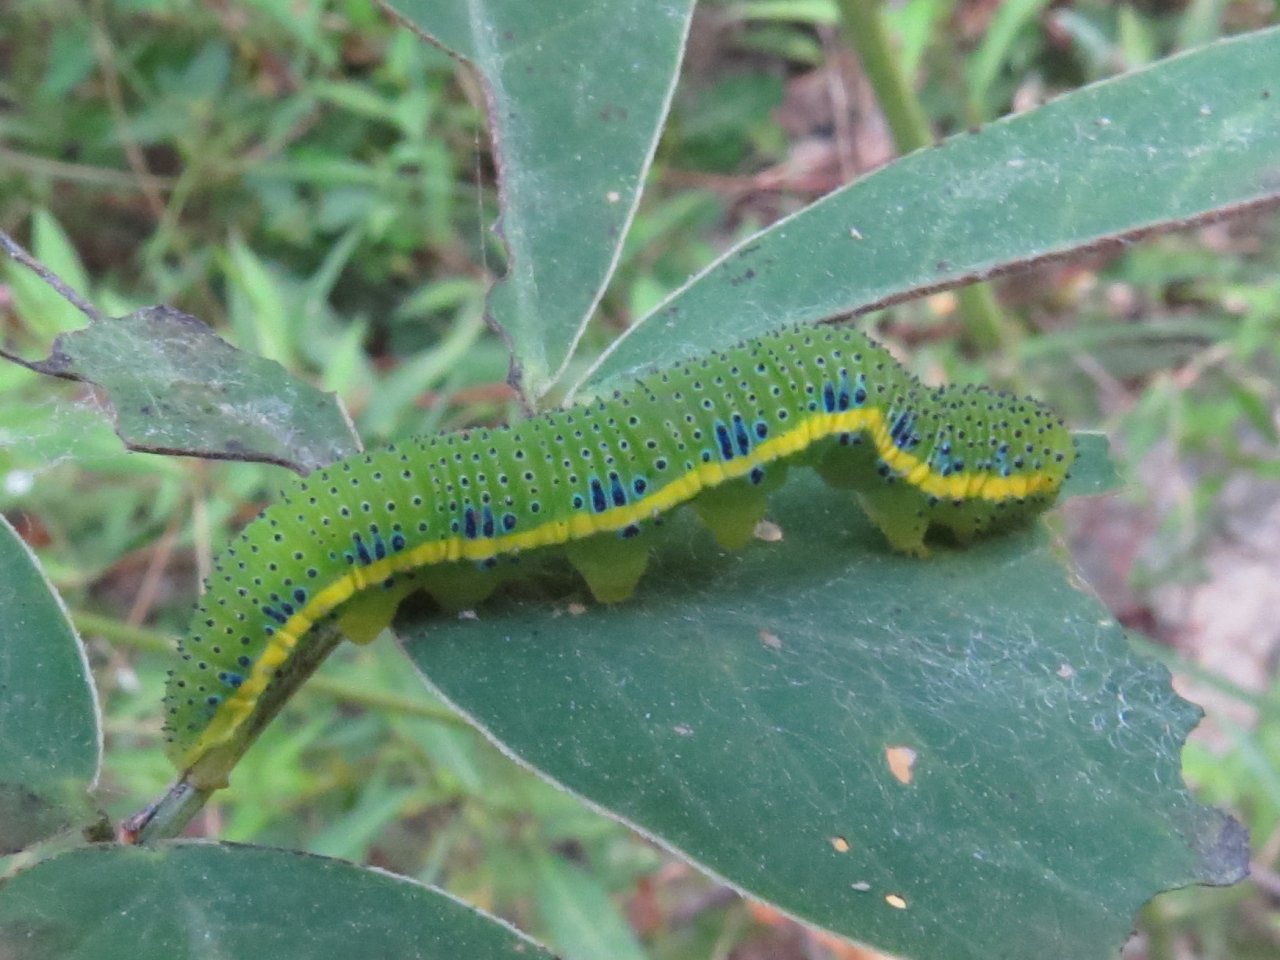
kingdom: Animalia
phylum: Arthropoda
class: Insecta
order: Lepidoptera
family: Pieridae
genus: Phoebis
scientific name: Phoebis sennae
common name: Cloudless Sulphur
